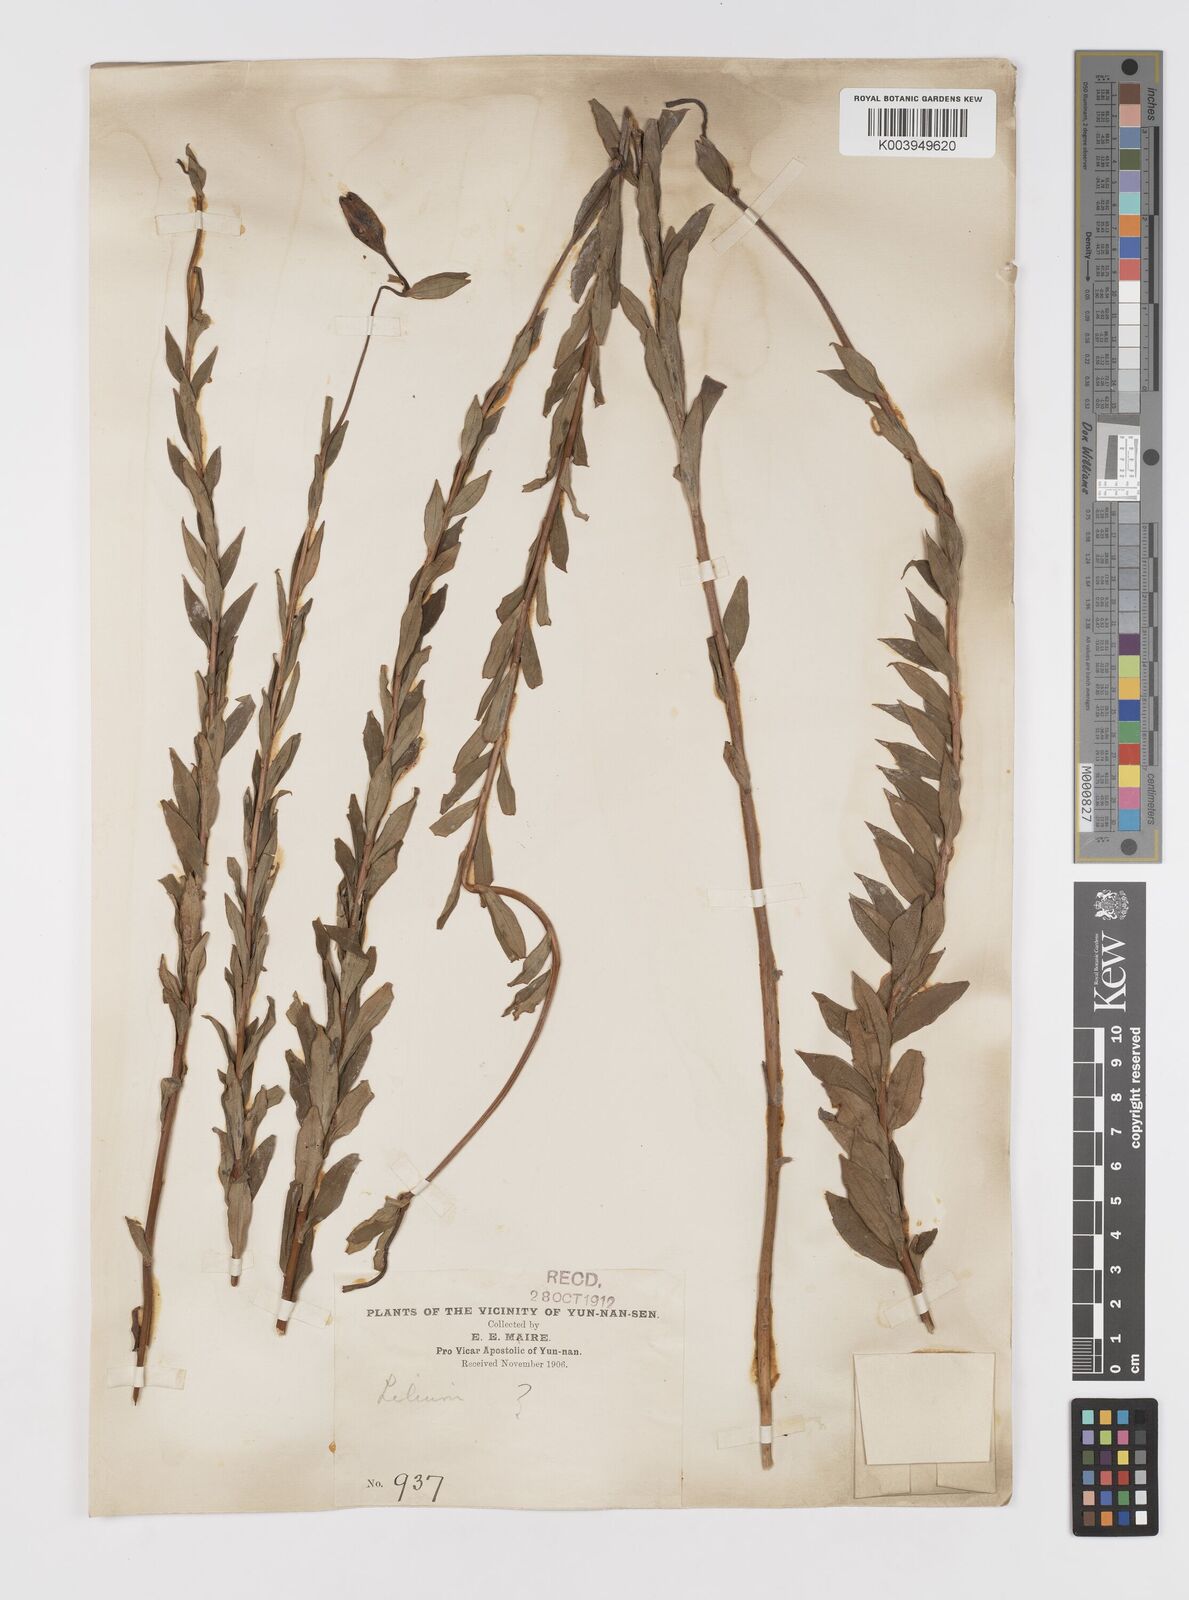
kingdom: Plantae
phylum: Tracheophyta
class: Liliopsida
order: Liliales
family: Liliaceae
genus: Lilium
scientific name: Lilium
